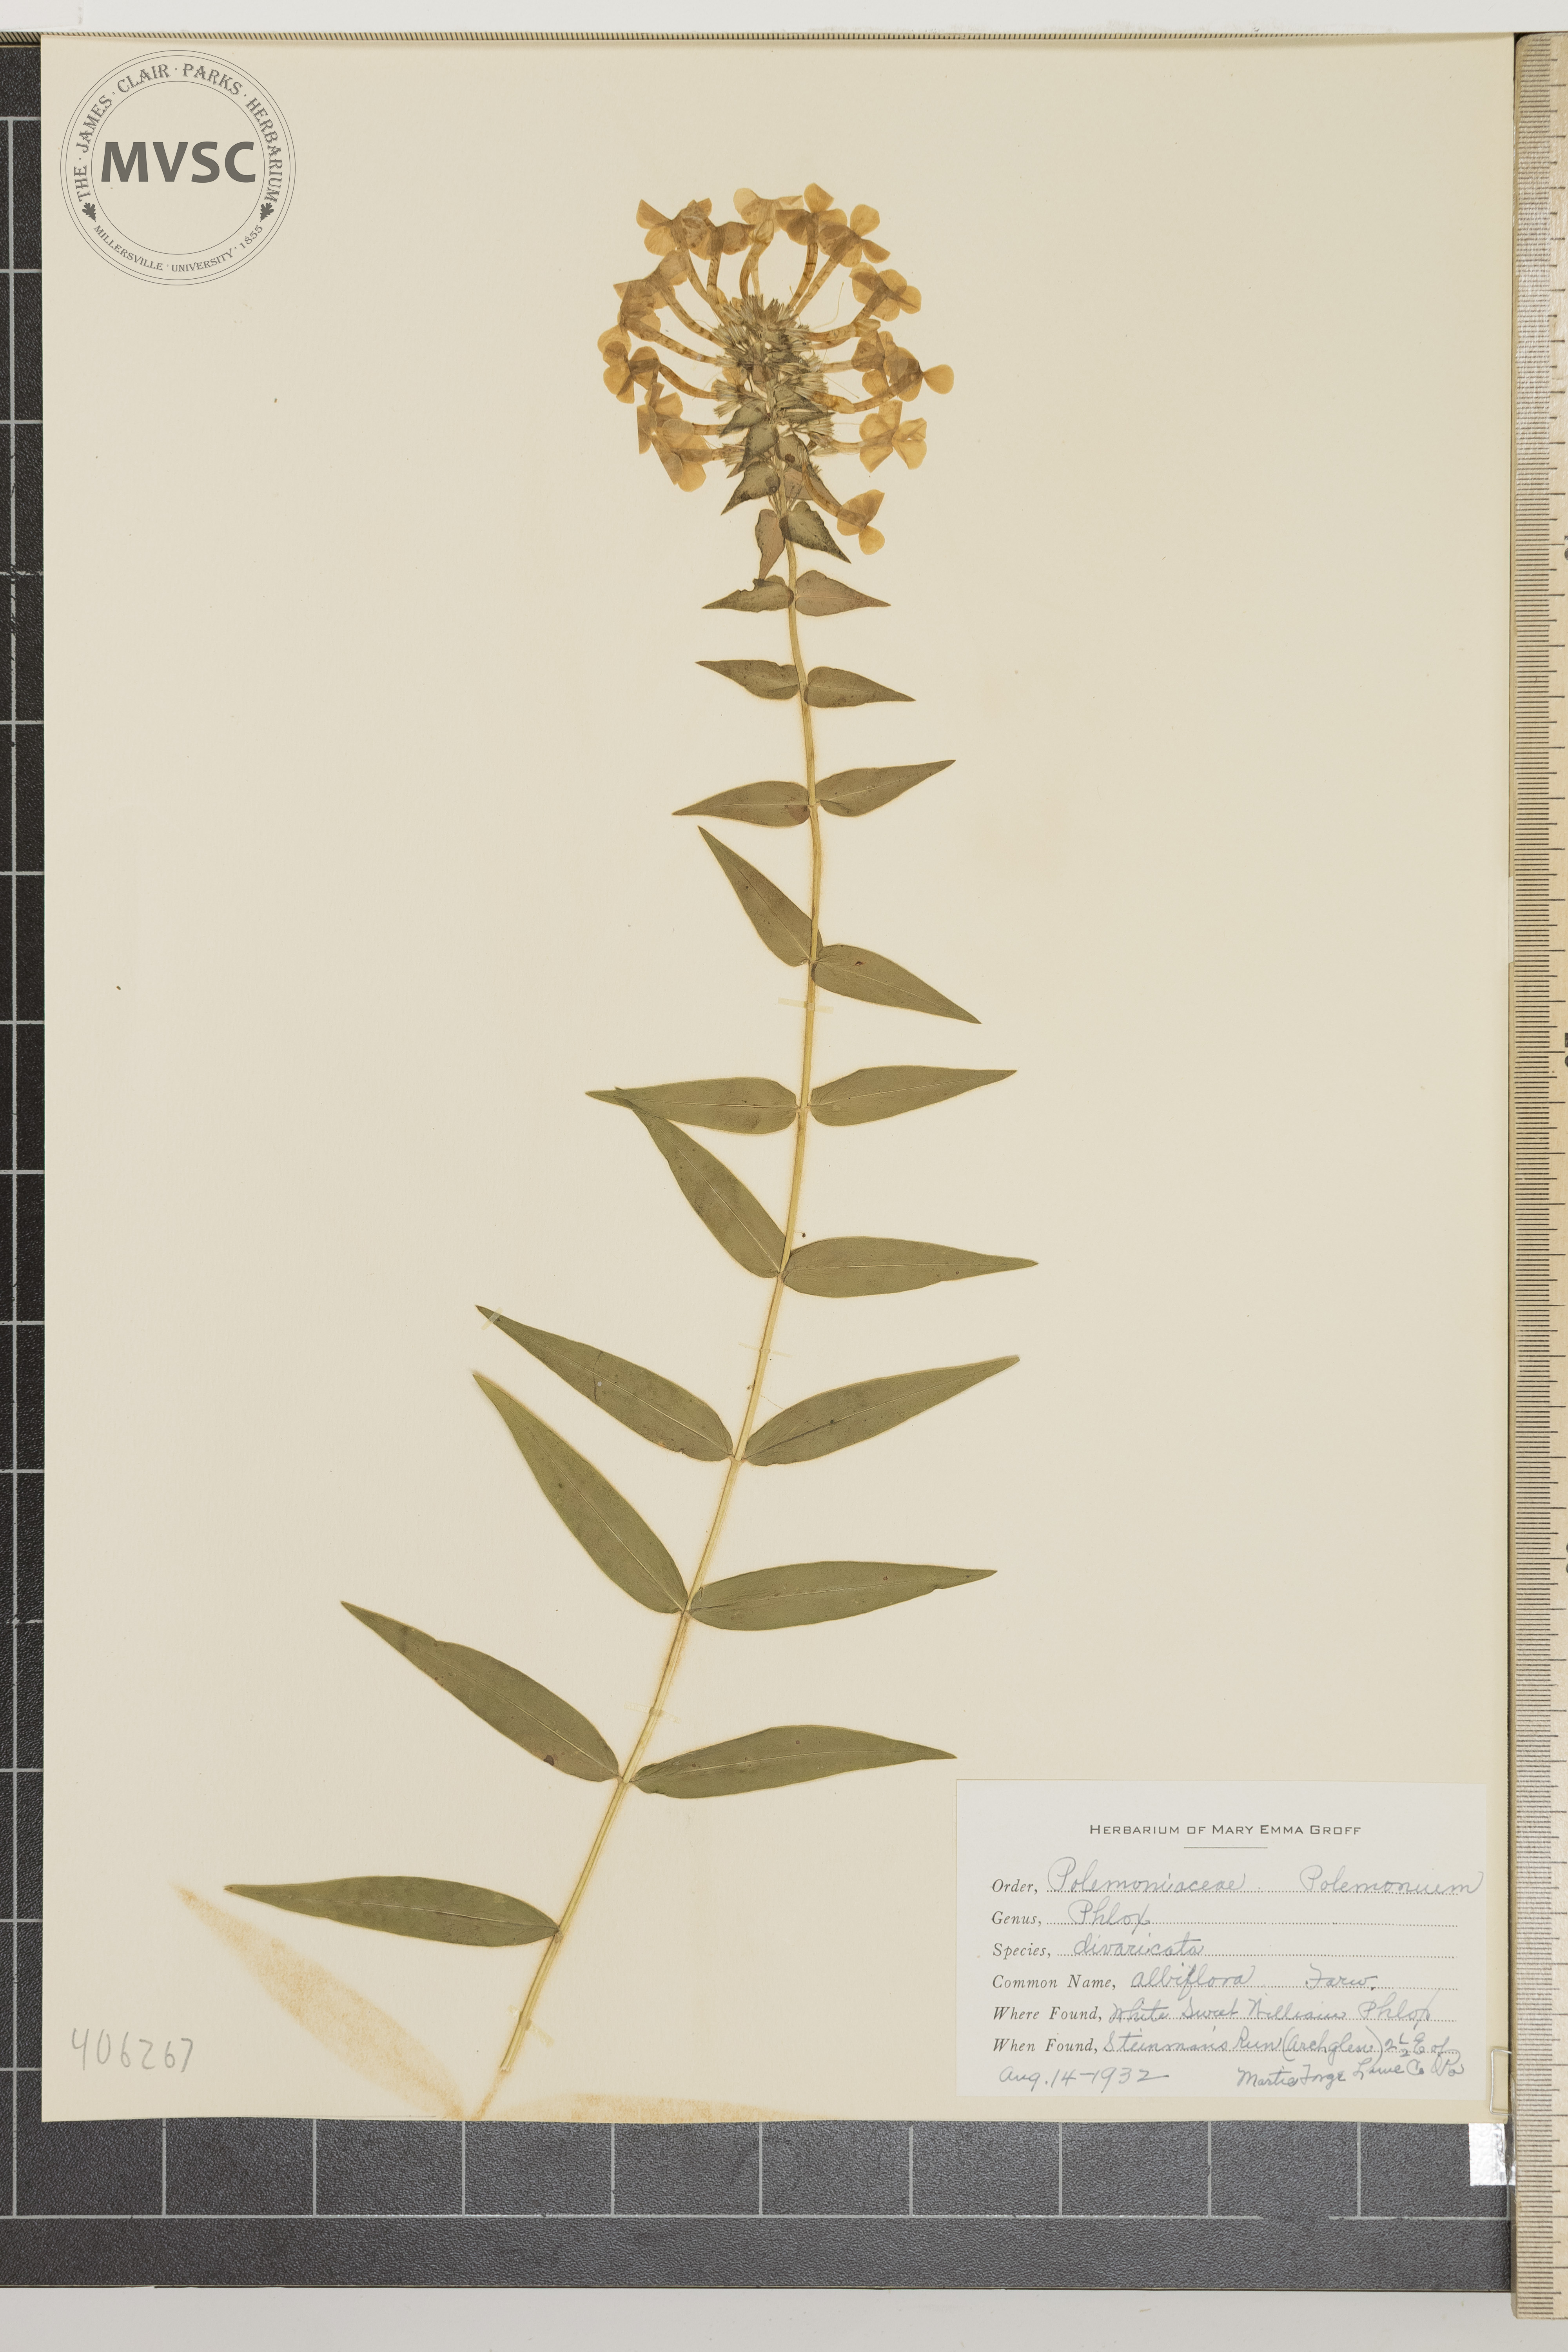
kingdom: Plantae
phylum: Tracheophyta
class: Magnoliopsida
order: Ericales
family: Polemoniaceae
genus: Phlox
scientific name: Phlox divaricata
